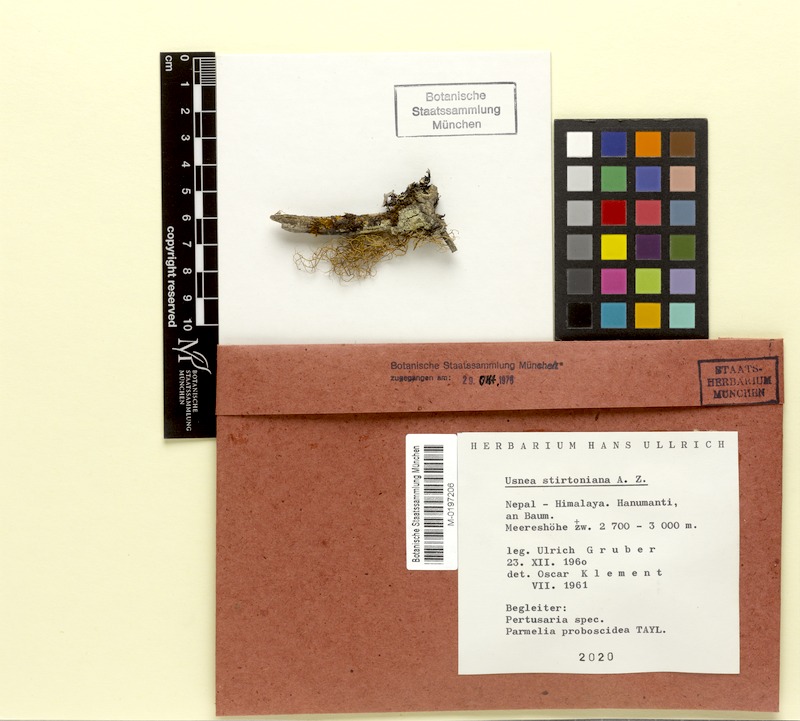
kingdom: Fungi
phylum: Ascomycota
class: Lecanoromycetes
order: Lecanorales
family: Parmeliaceae
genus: Usnea
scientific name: Usnea
